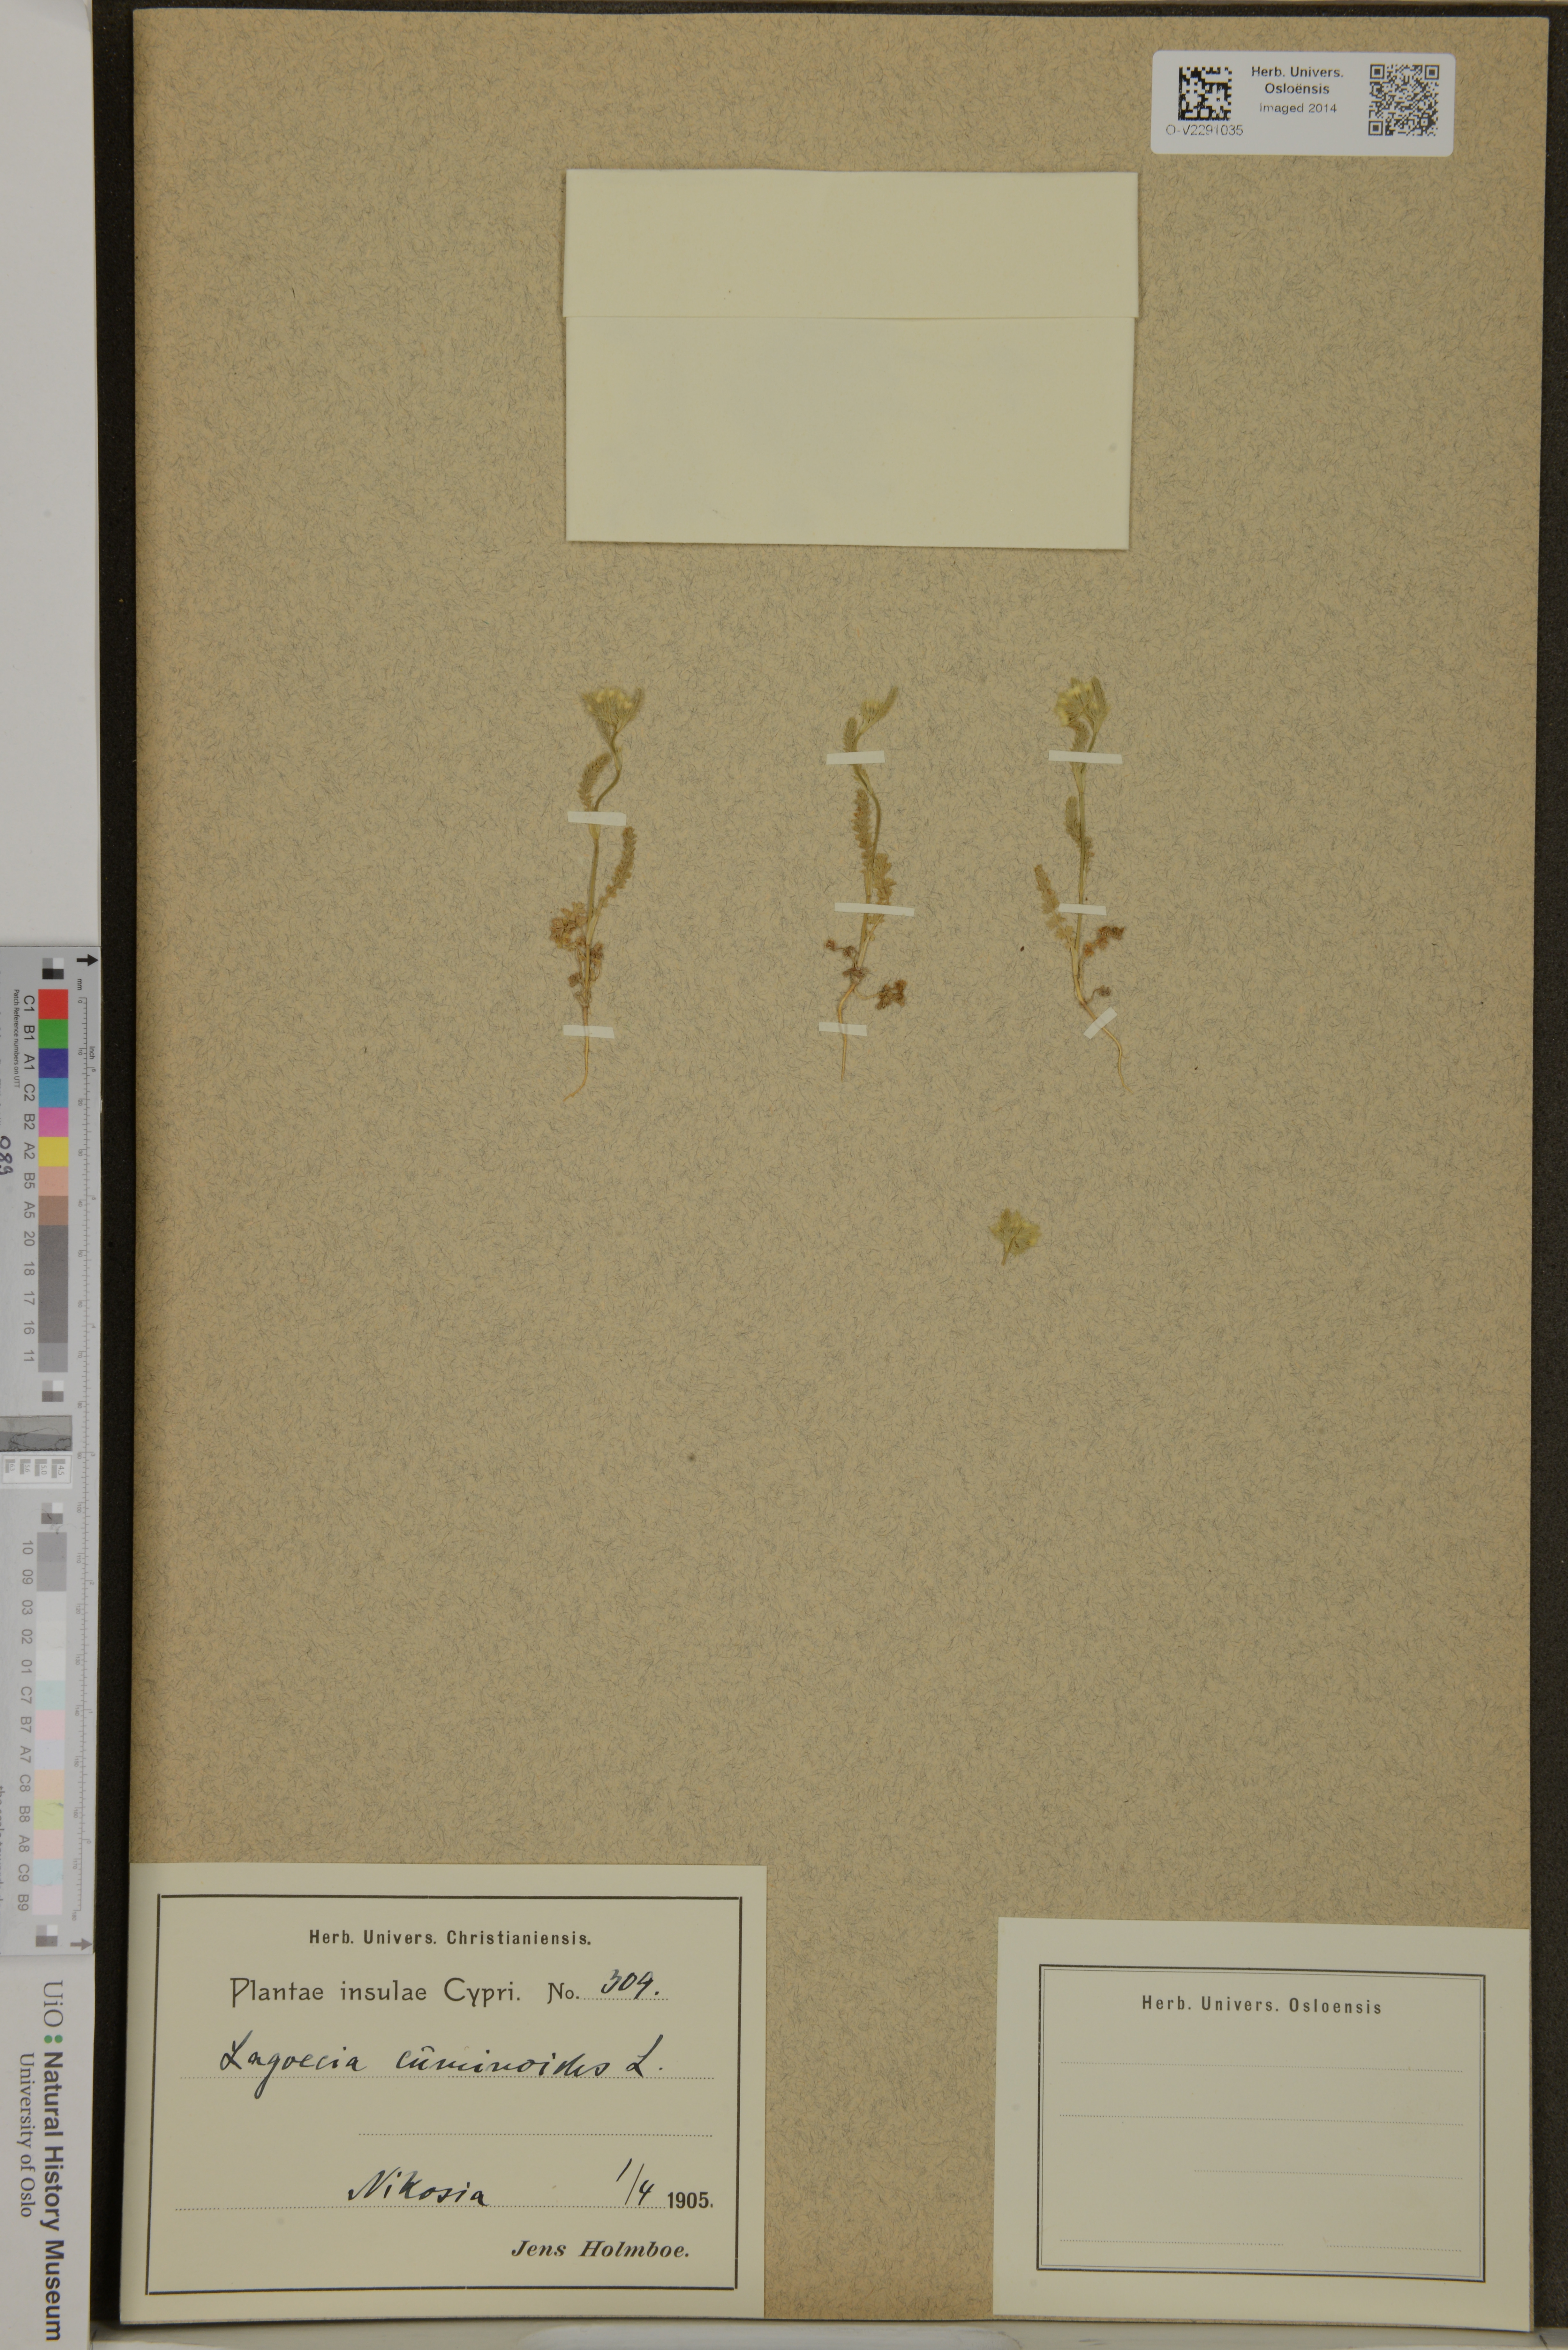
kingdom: Plantae
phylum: Tracheophyta
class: Magnoliopsida
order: Apiales
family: Apiaceae
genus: Lagoecia
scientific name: Lagoecia cuminoides
